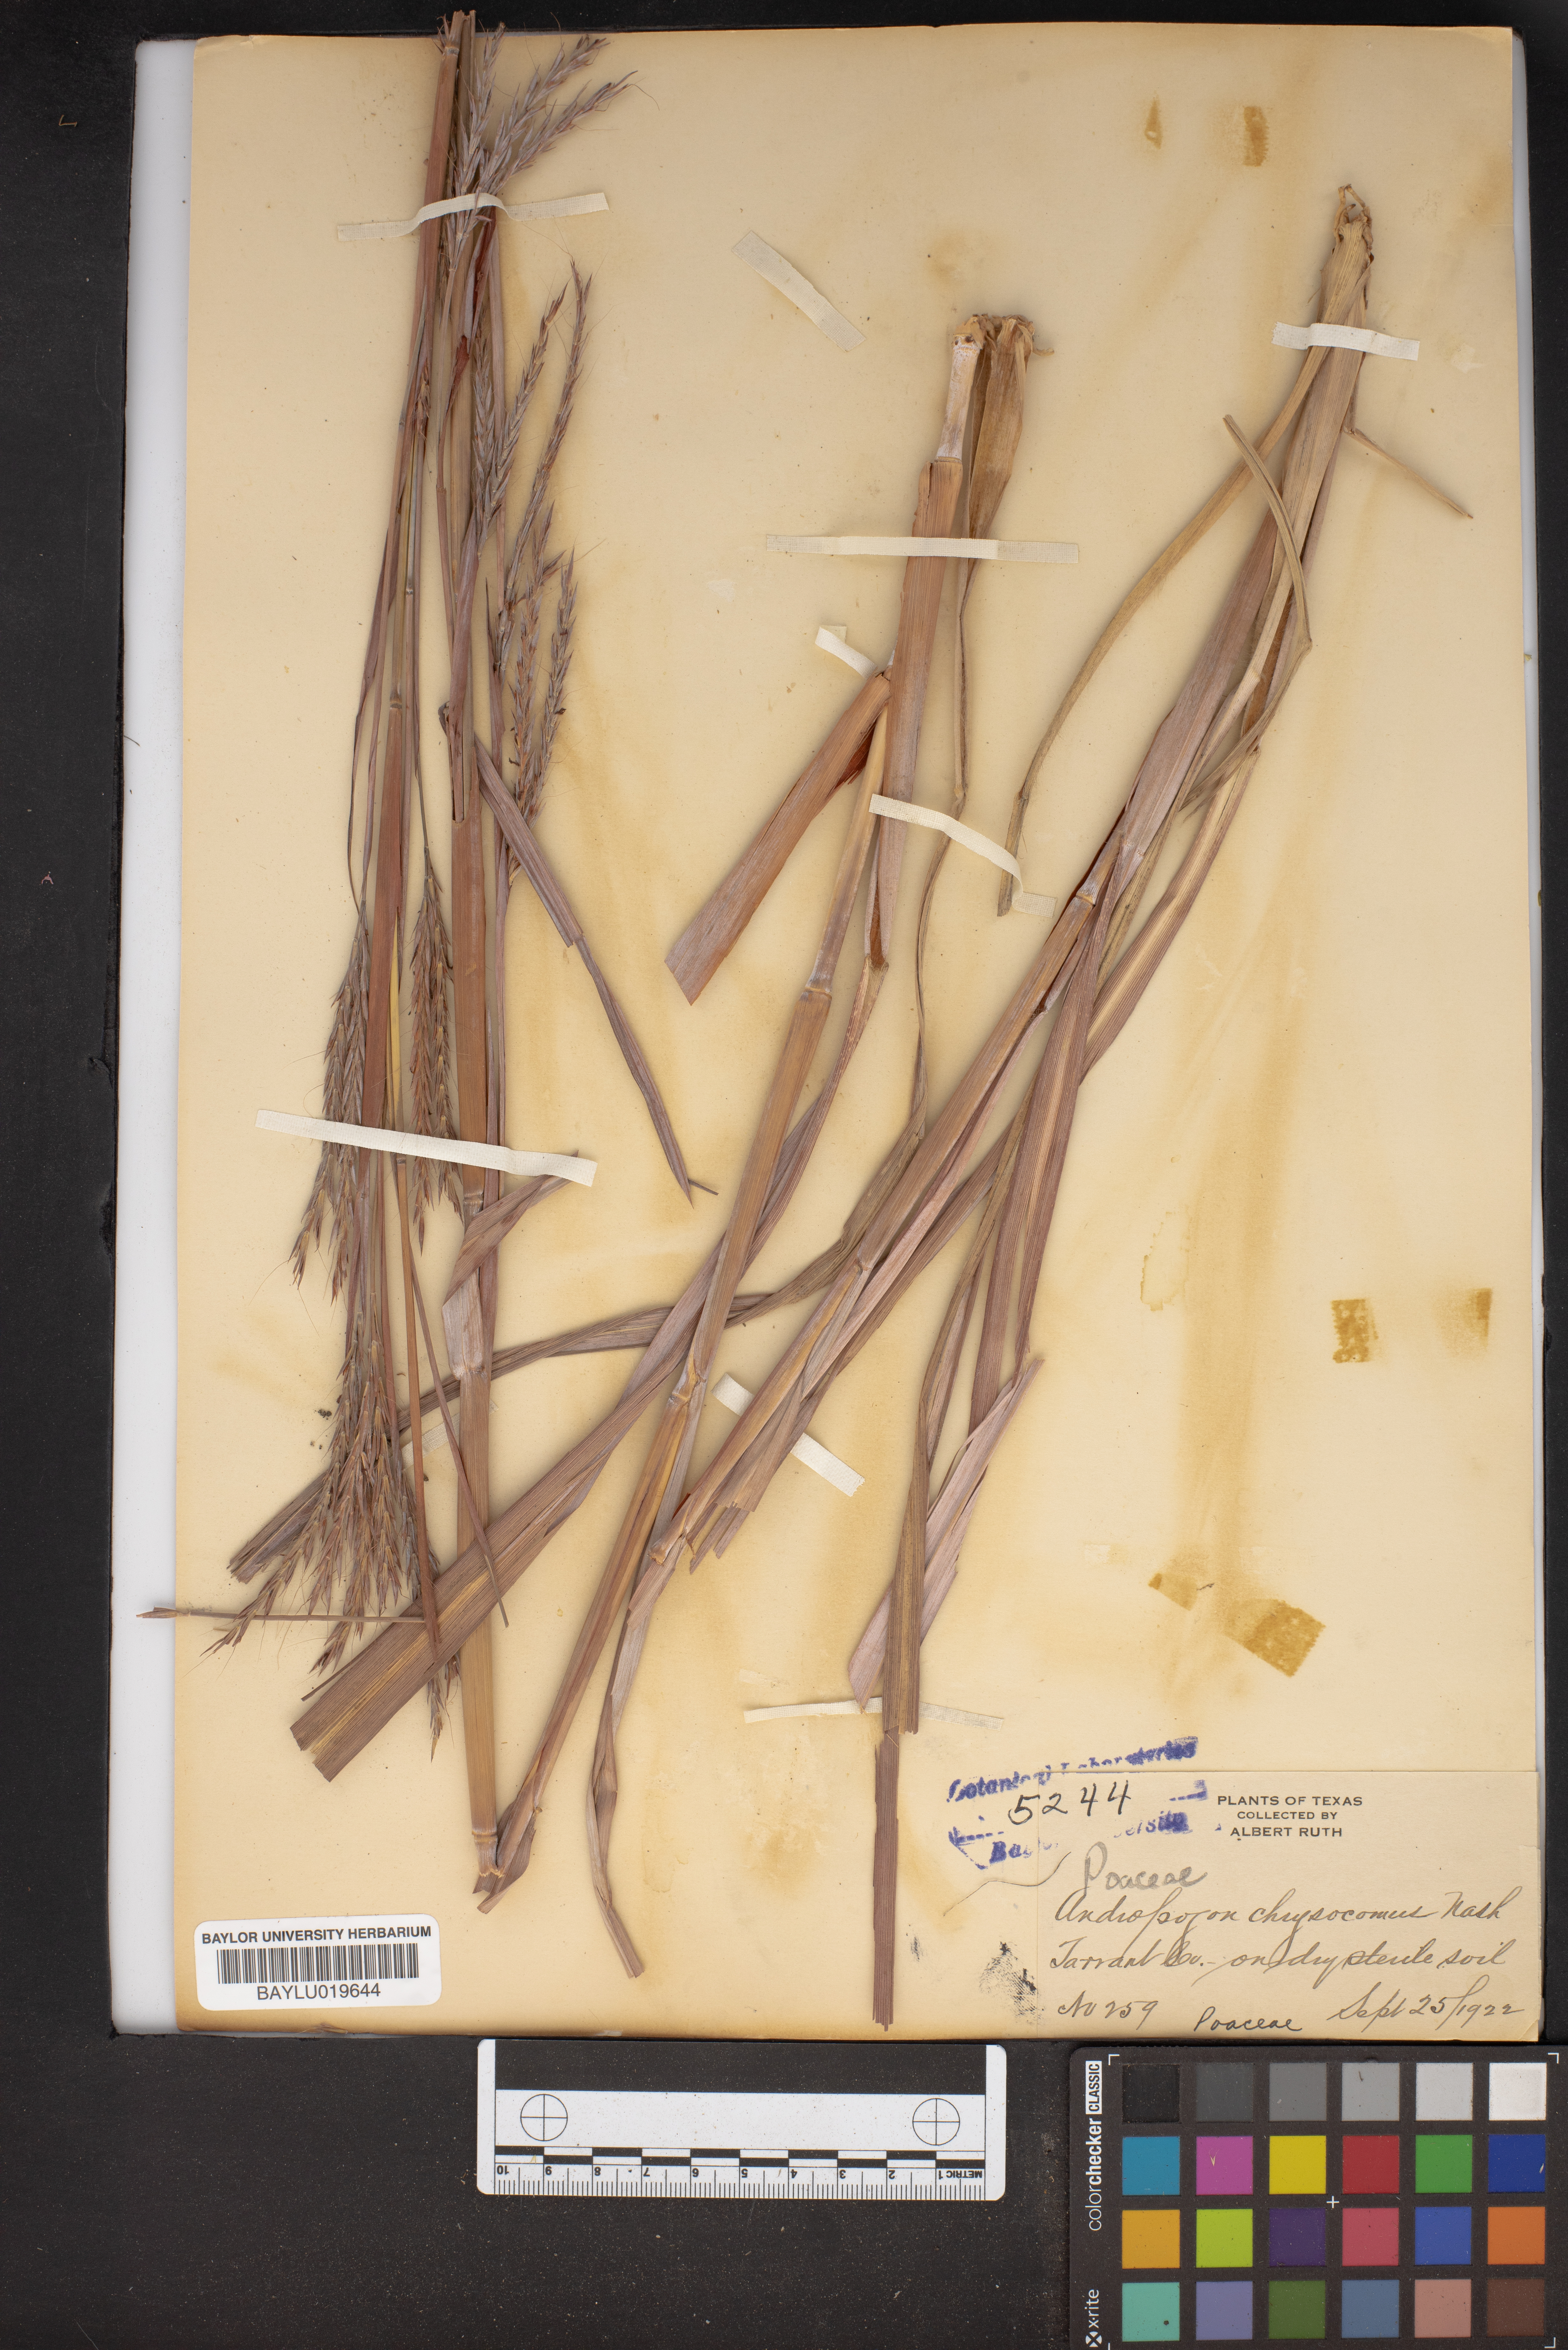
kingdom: Plantae
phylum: Tracheophyta
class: Liliopsida
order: Poales
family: Poaceae
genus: Andropogon
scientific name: Andropogon gerardi
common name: Big bluestem
